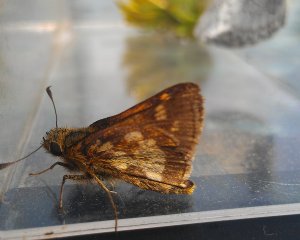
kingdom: Animalia
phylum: Arthropoda
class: Insecta
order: Lepidoptera
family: Hesperiidae
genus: Polites
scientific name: Polites coras
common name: Peck's Skipper
